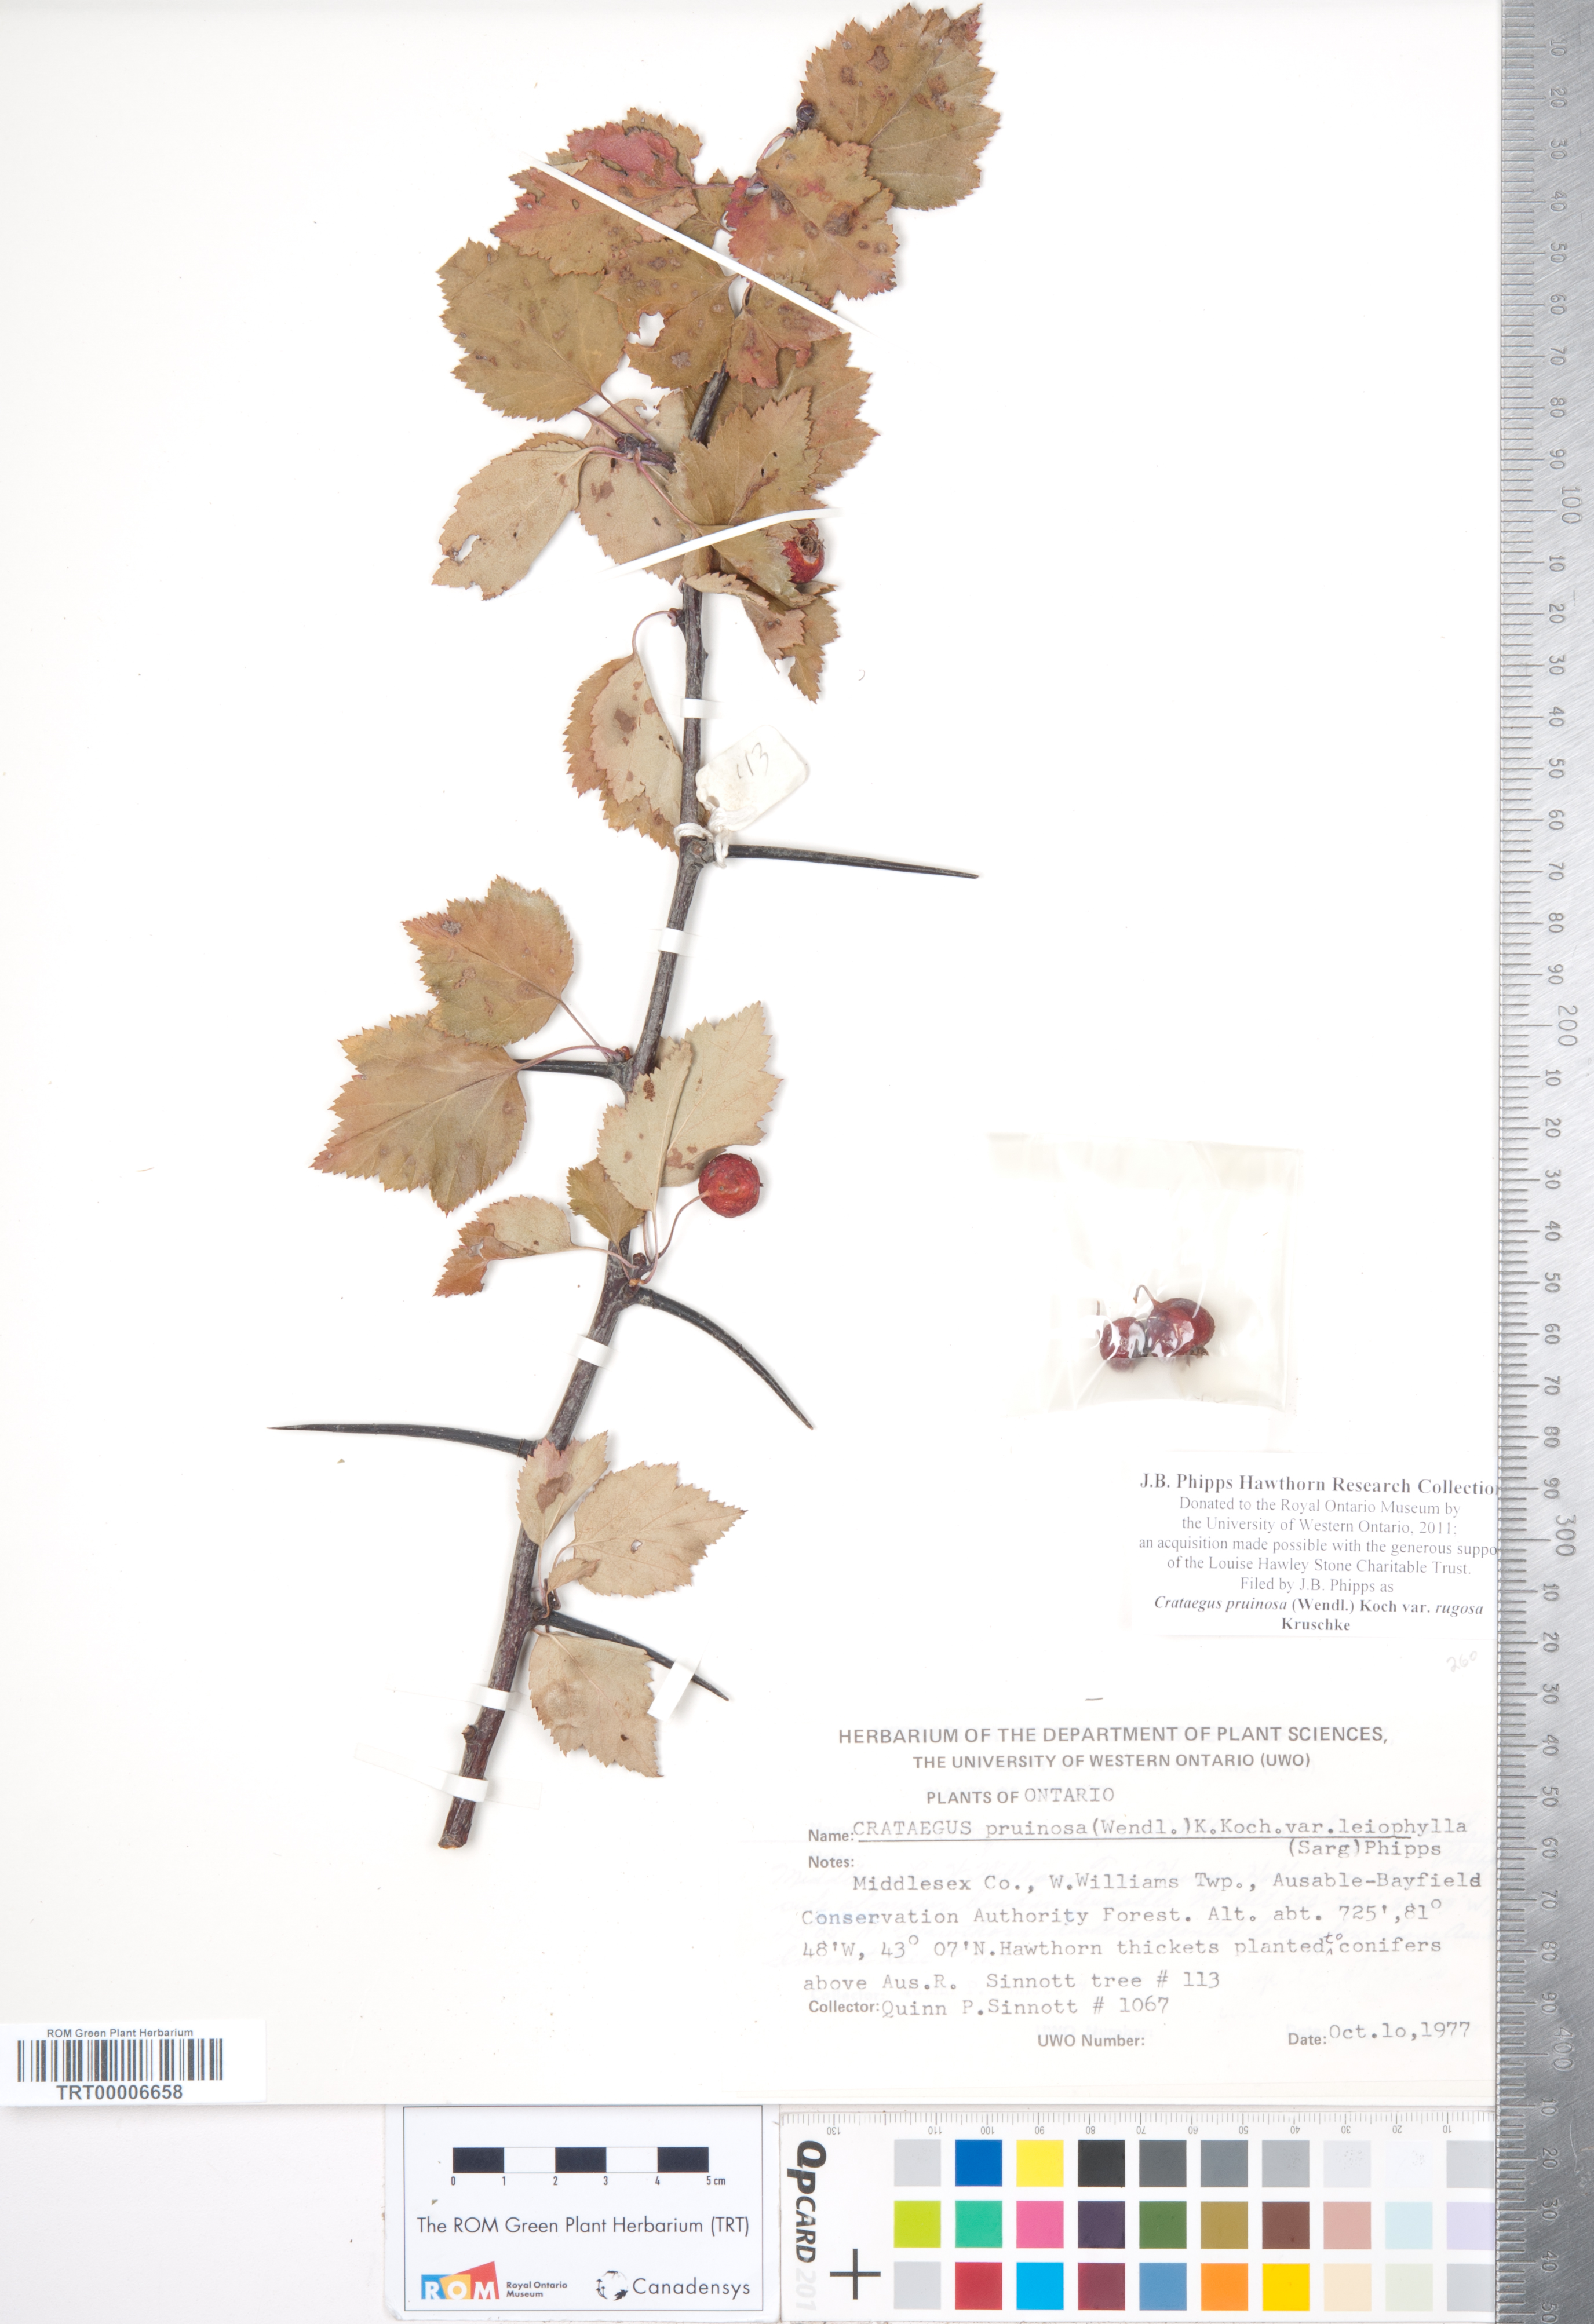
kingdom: Plantae
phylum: Tracheophyta
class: Magnoliopsida
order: Rosales
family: Rosaceae
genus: Crataegus
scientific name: Crataegus pruinosa
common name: Waxy-fruit hawthorn
